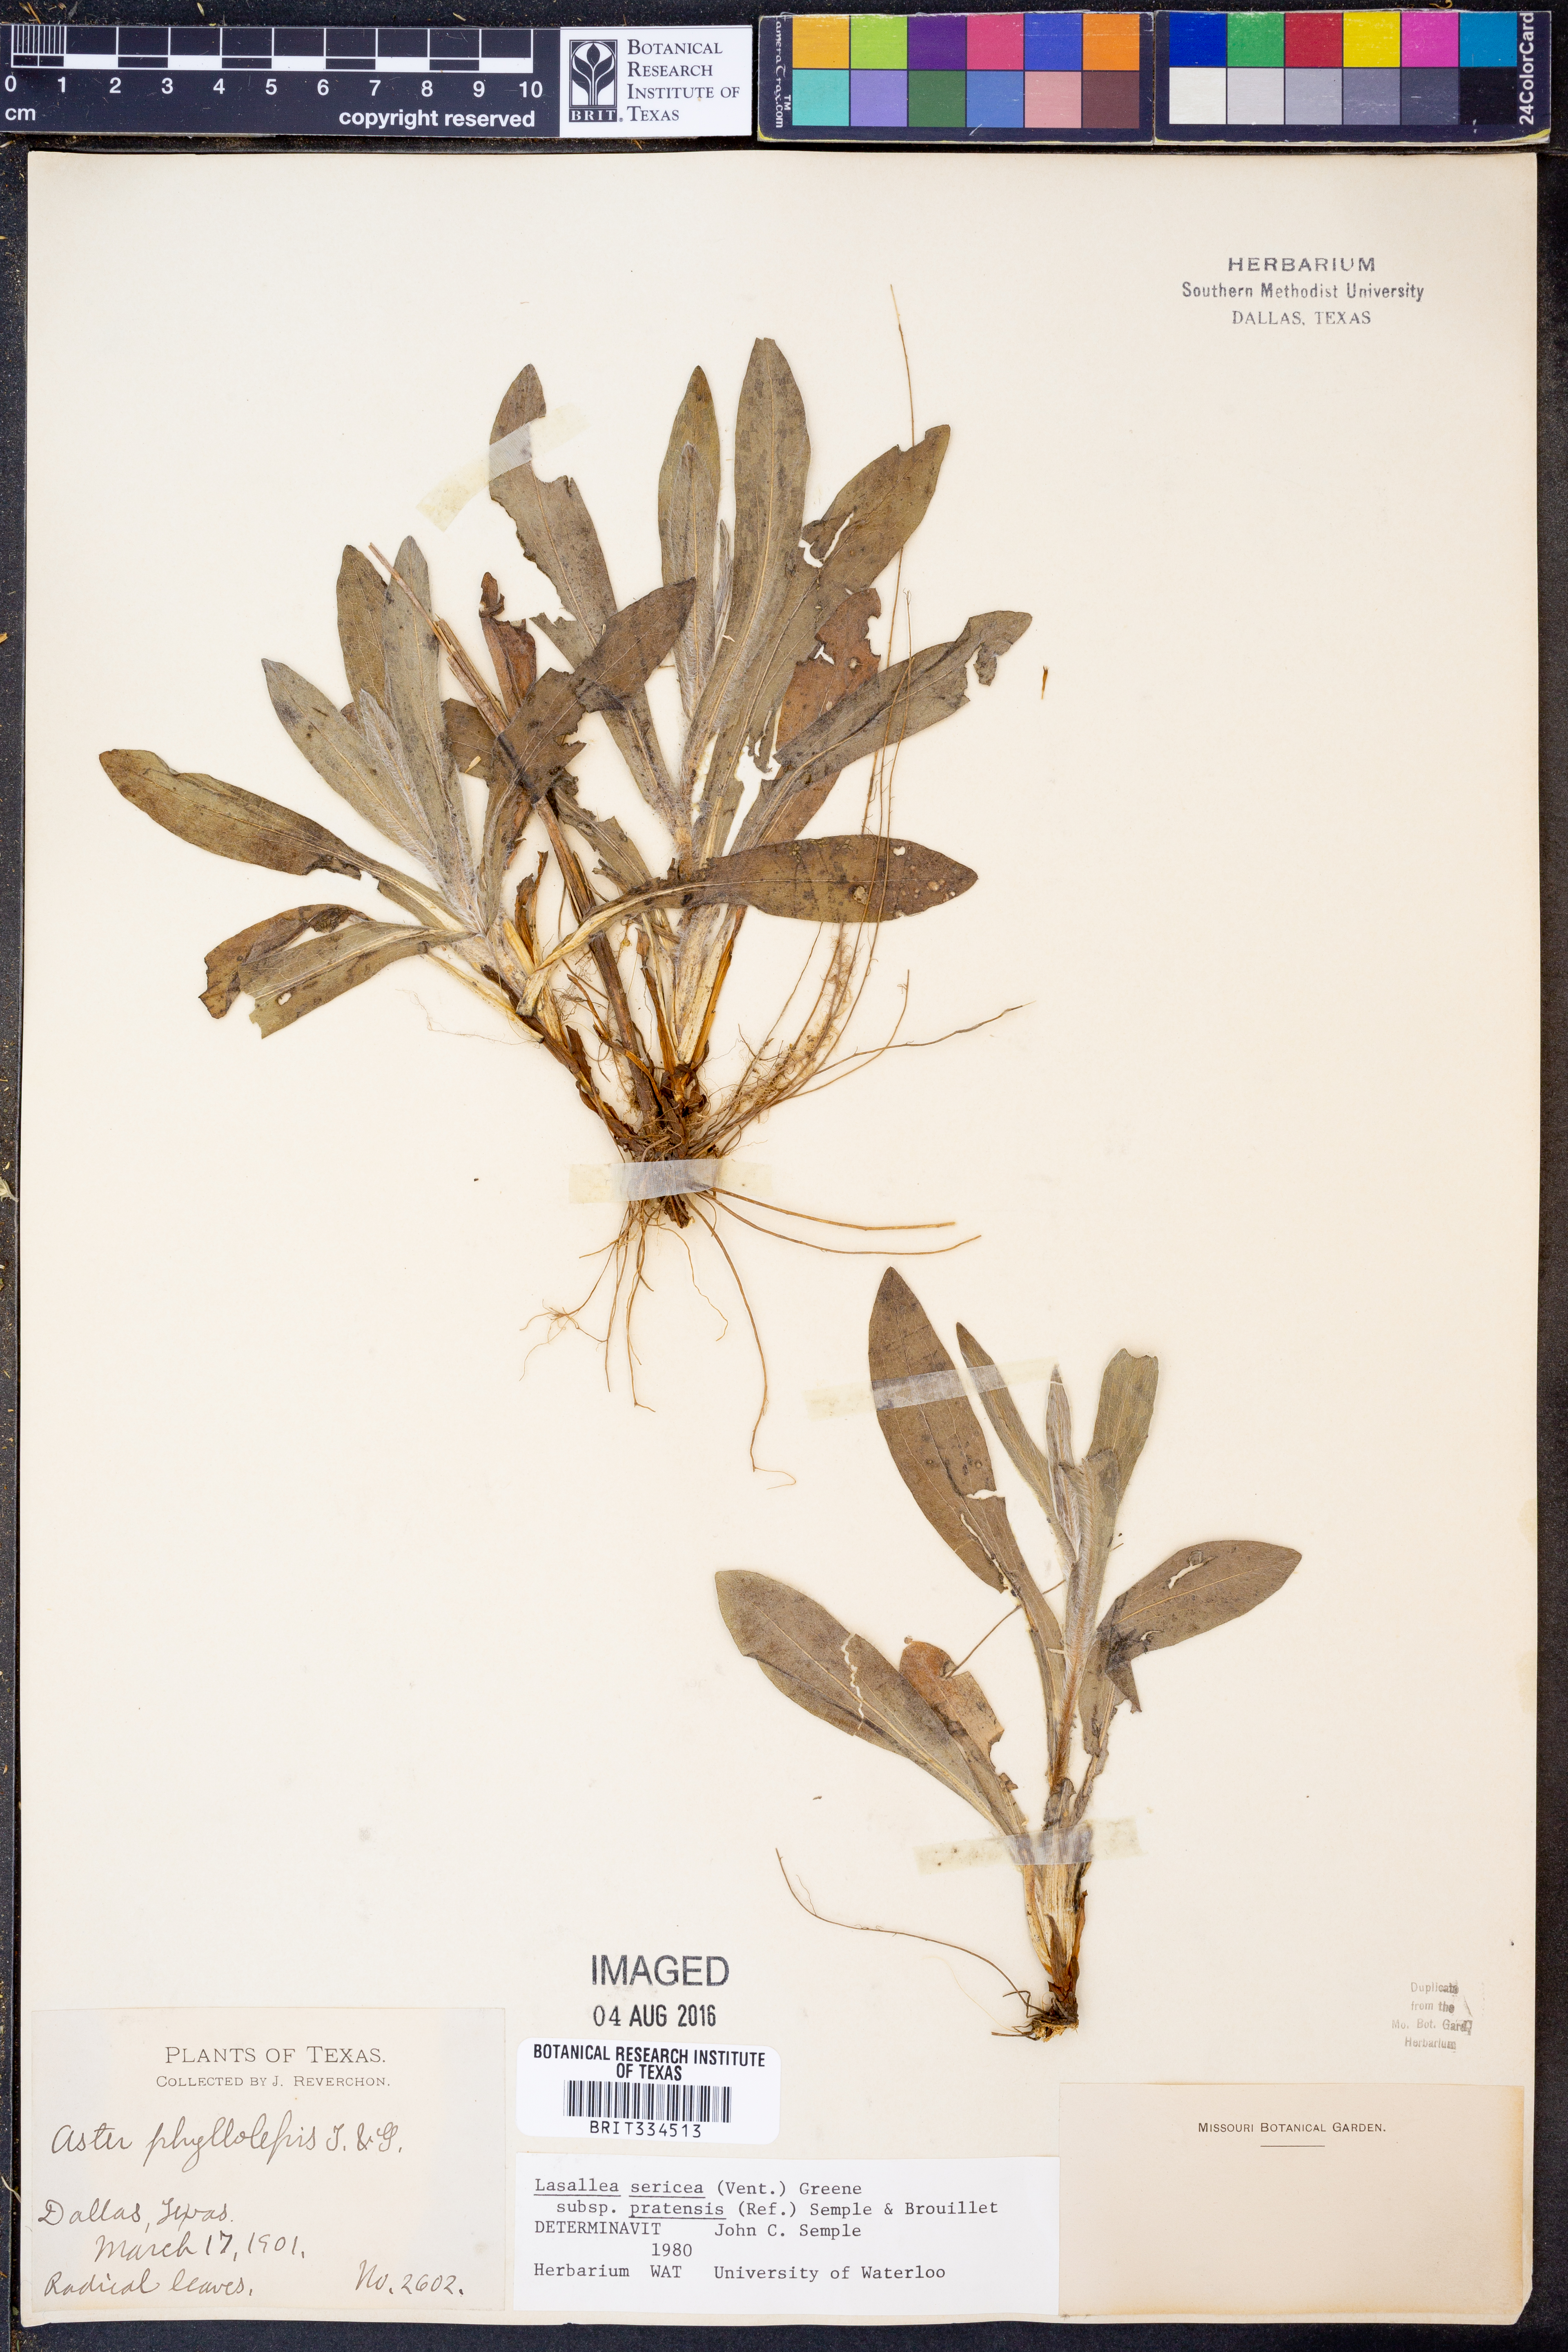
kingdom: Plantae
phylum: Tracheophyta
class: Magnoliopsida
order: Asterales
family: Asteraceae
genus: Symphyotrichum
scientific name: Symphyotrichum pratense
